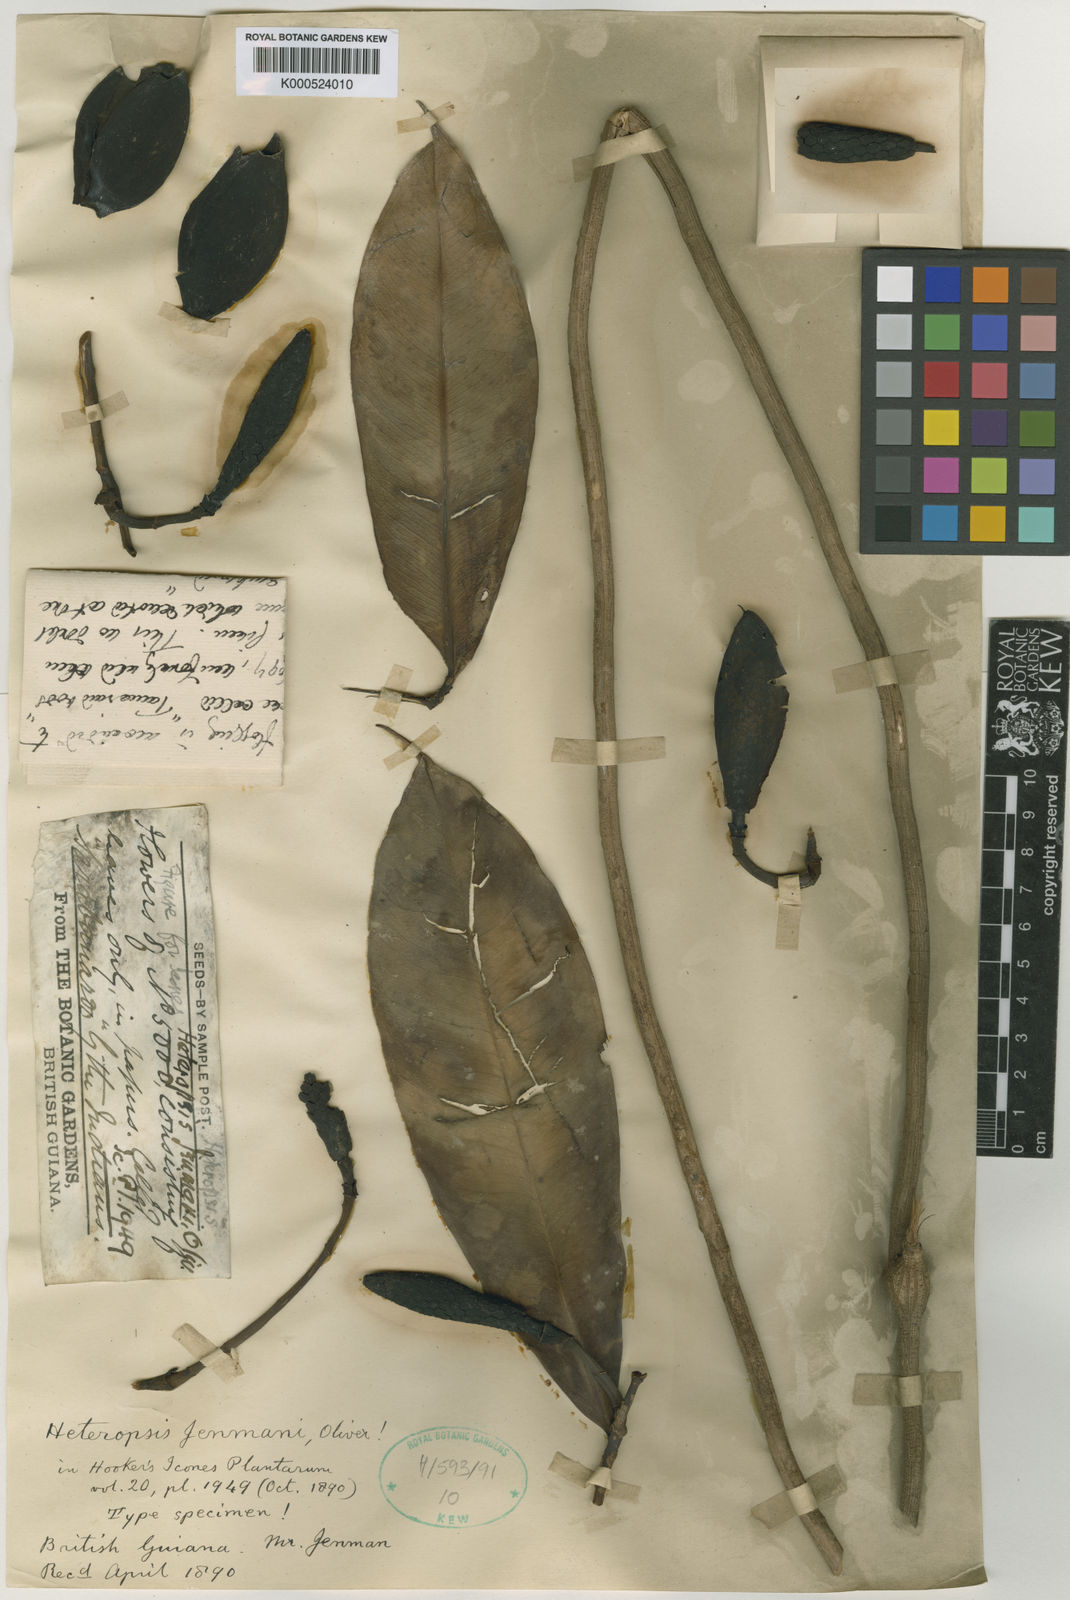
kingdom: Plantae
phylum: Tracheophyta
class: Liliopsida
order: Alismatales
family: Araceae
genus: Heteropsis
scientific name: Heteropsis flexuosa
